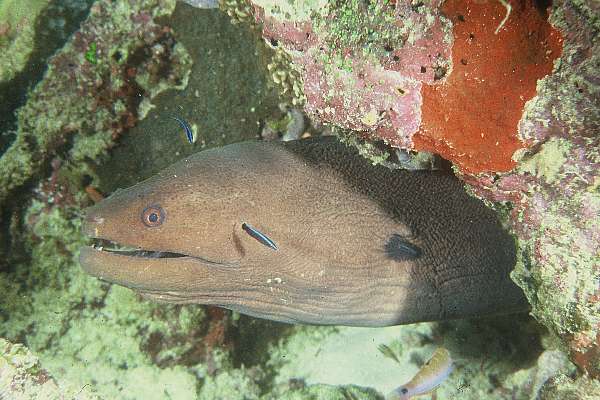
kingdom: Animalia
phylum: Chordata
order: Anguilliformes
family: Muraenidae
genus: Gymnothorax
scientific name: Gymnothorax javanicus
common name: Giant moray
